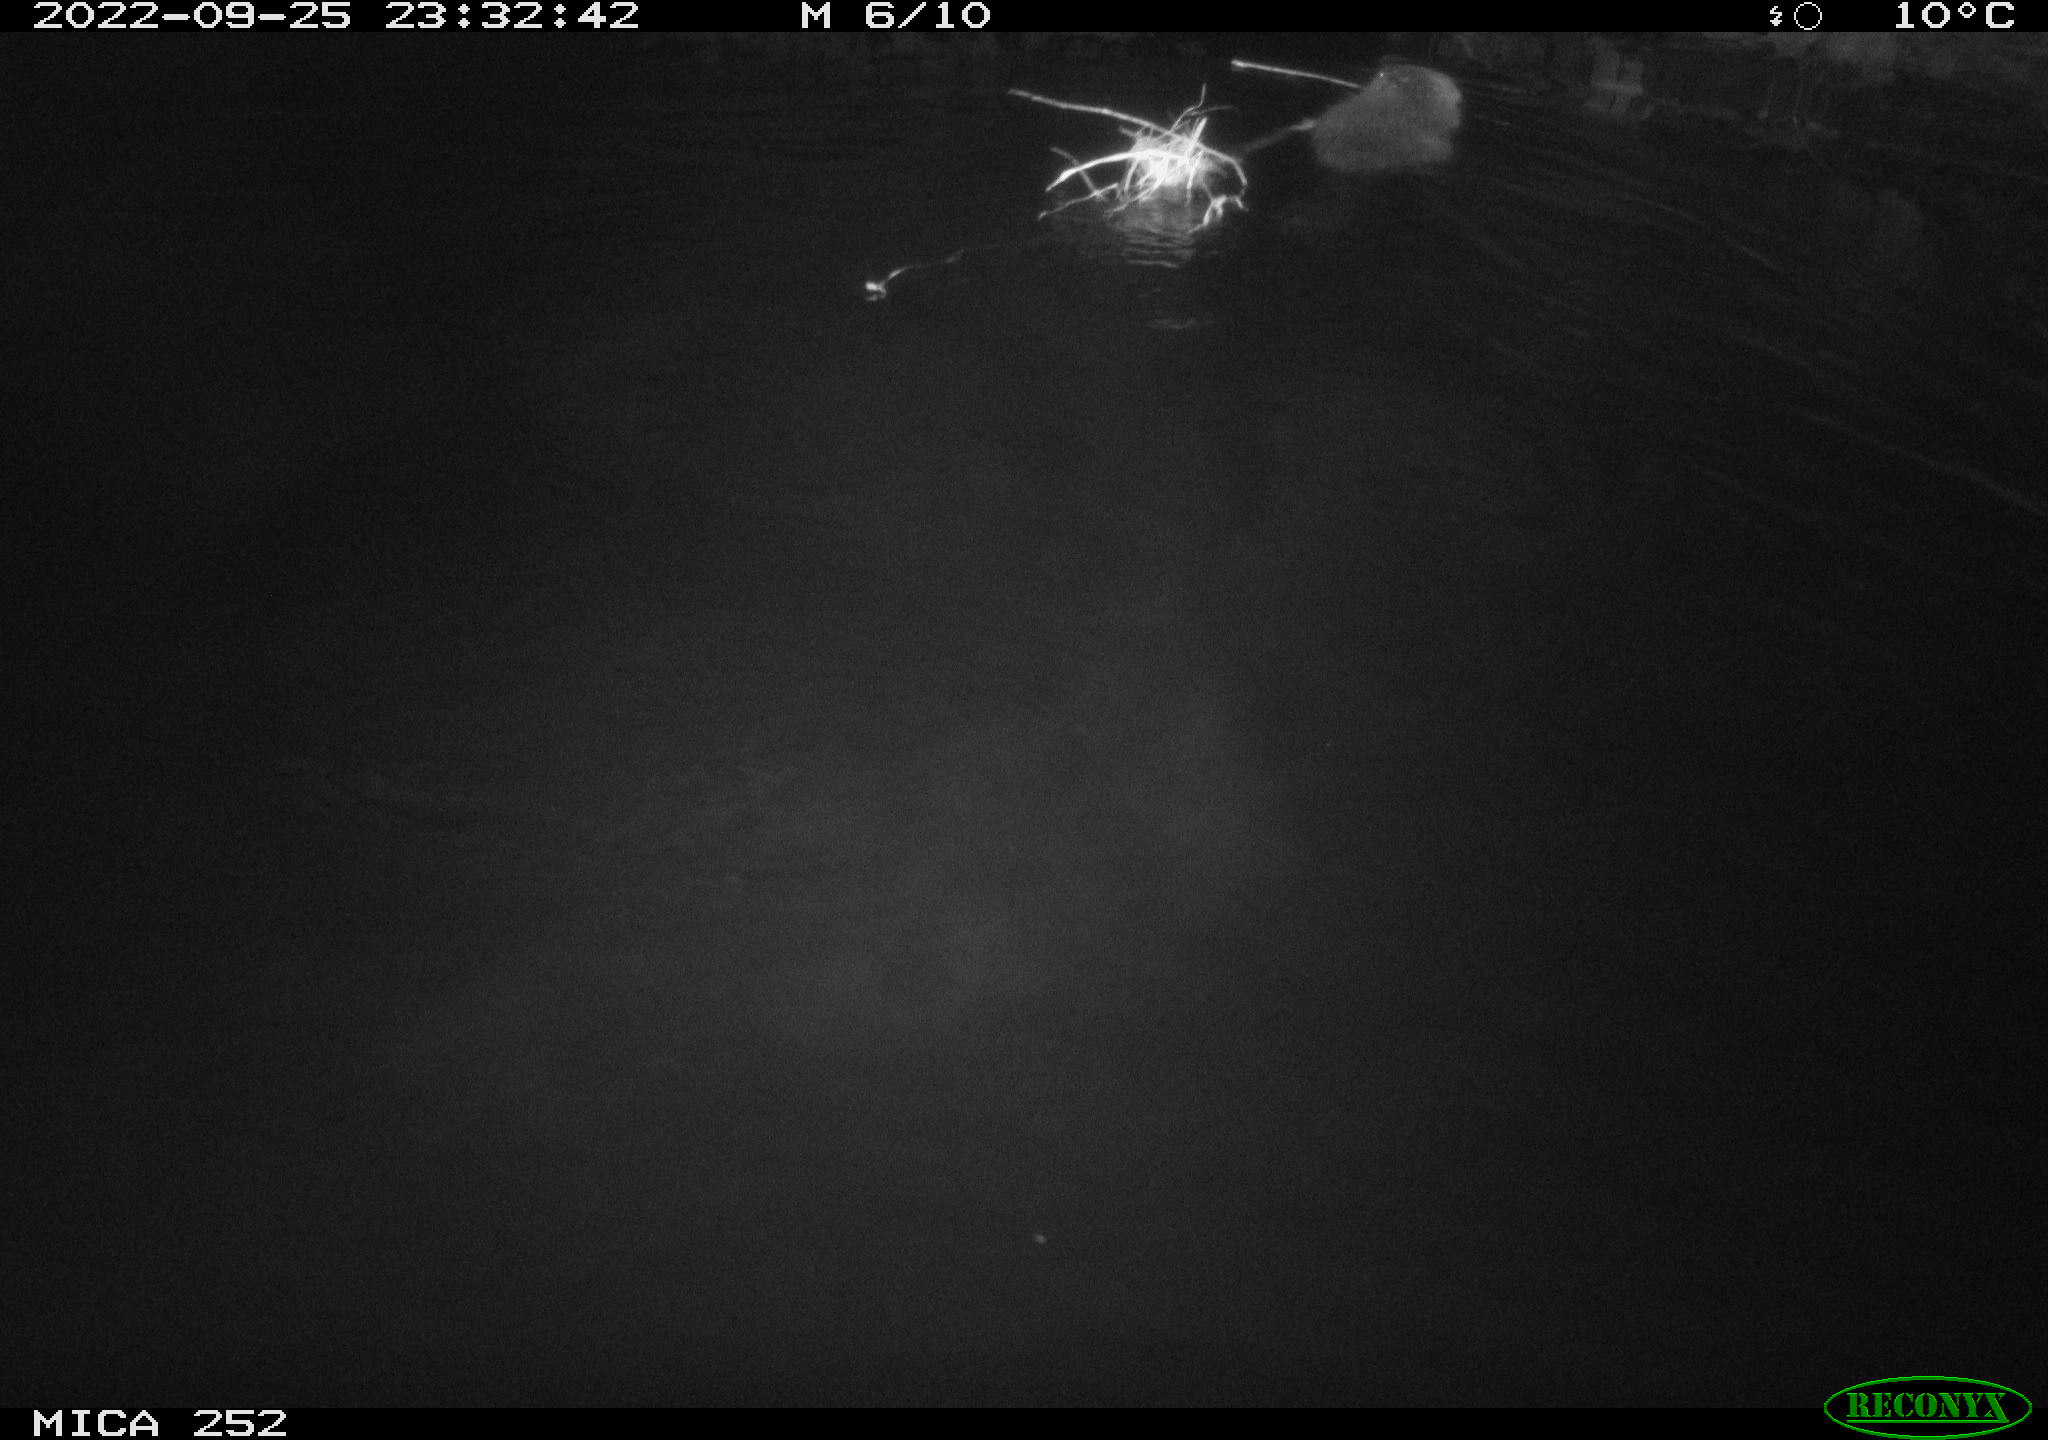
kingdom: Animalia
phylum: Chordata
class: Mammalia
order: Rodentia
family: Castoridae
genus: Castor
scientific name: Castor fiber
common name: Eurasian beaver
